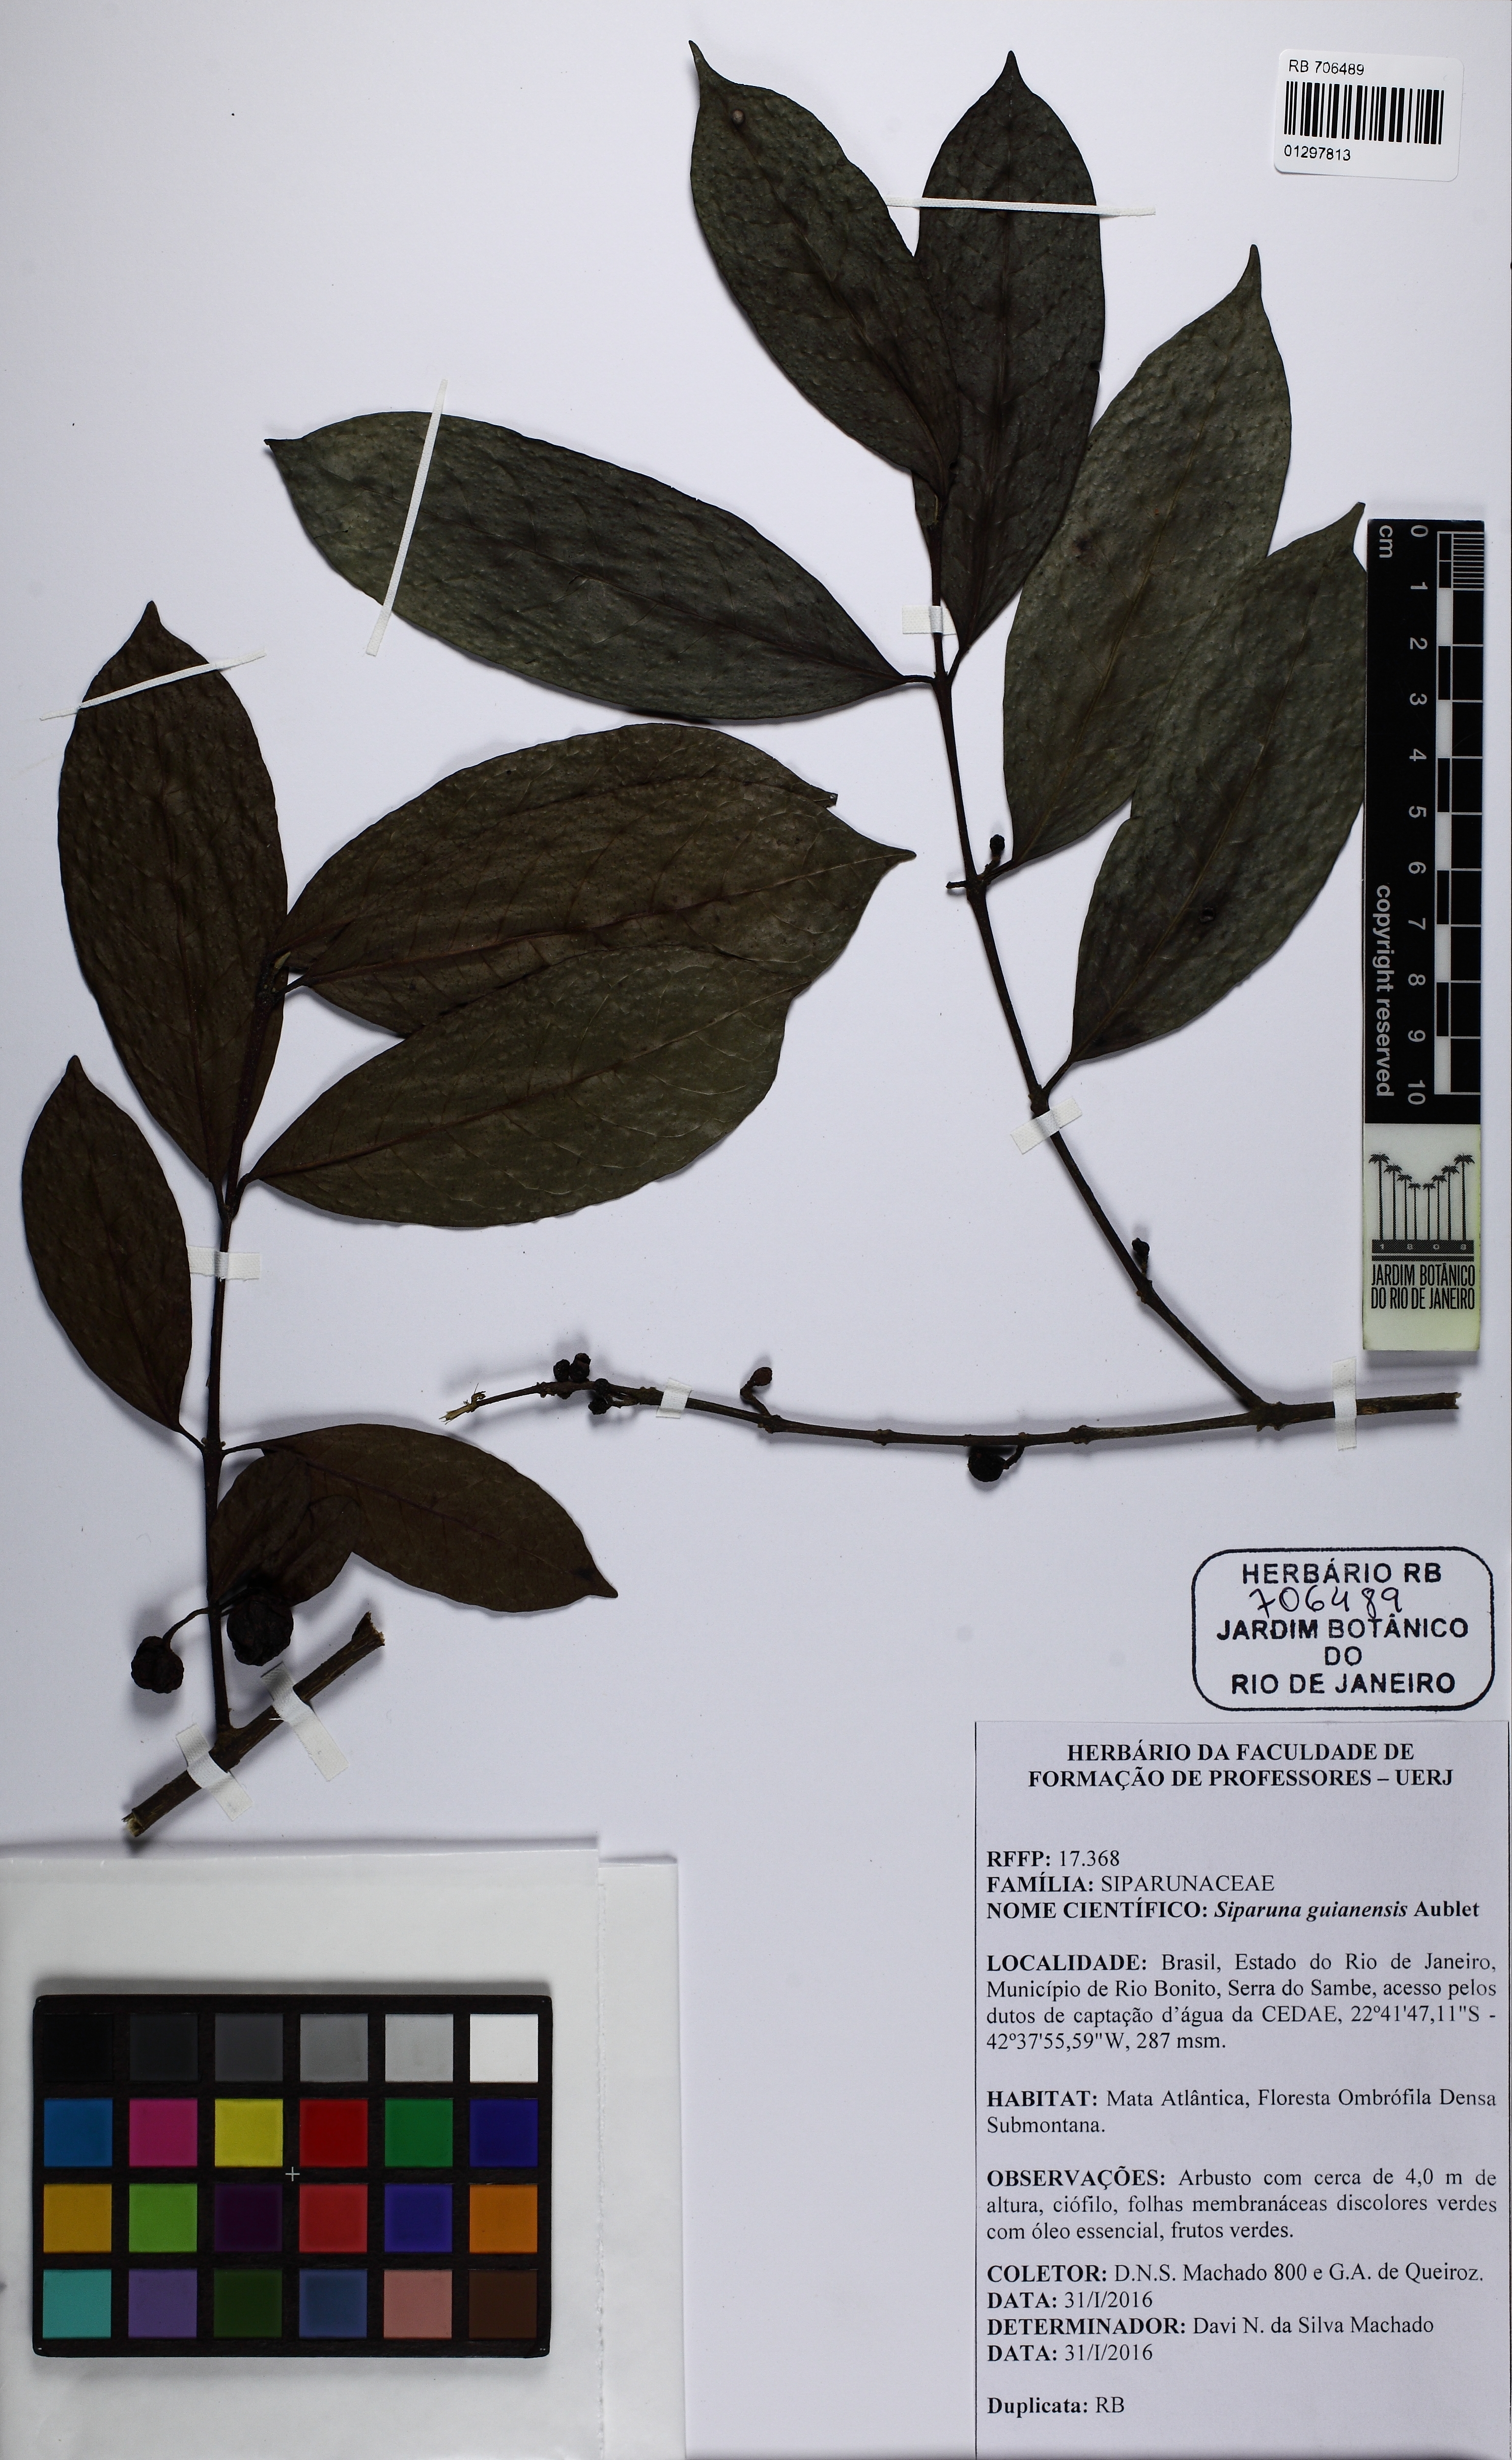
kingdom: Plantae
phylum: Tracheophyta
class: Magnoliopsida
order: Laurales
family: Siparunaceae
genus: Siparuna
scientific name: Siparuna guianensis
